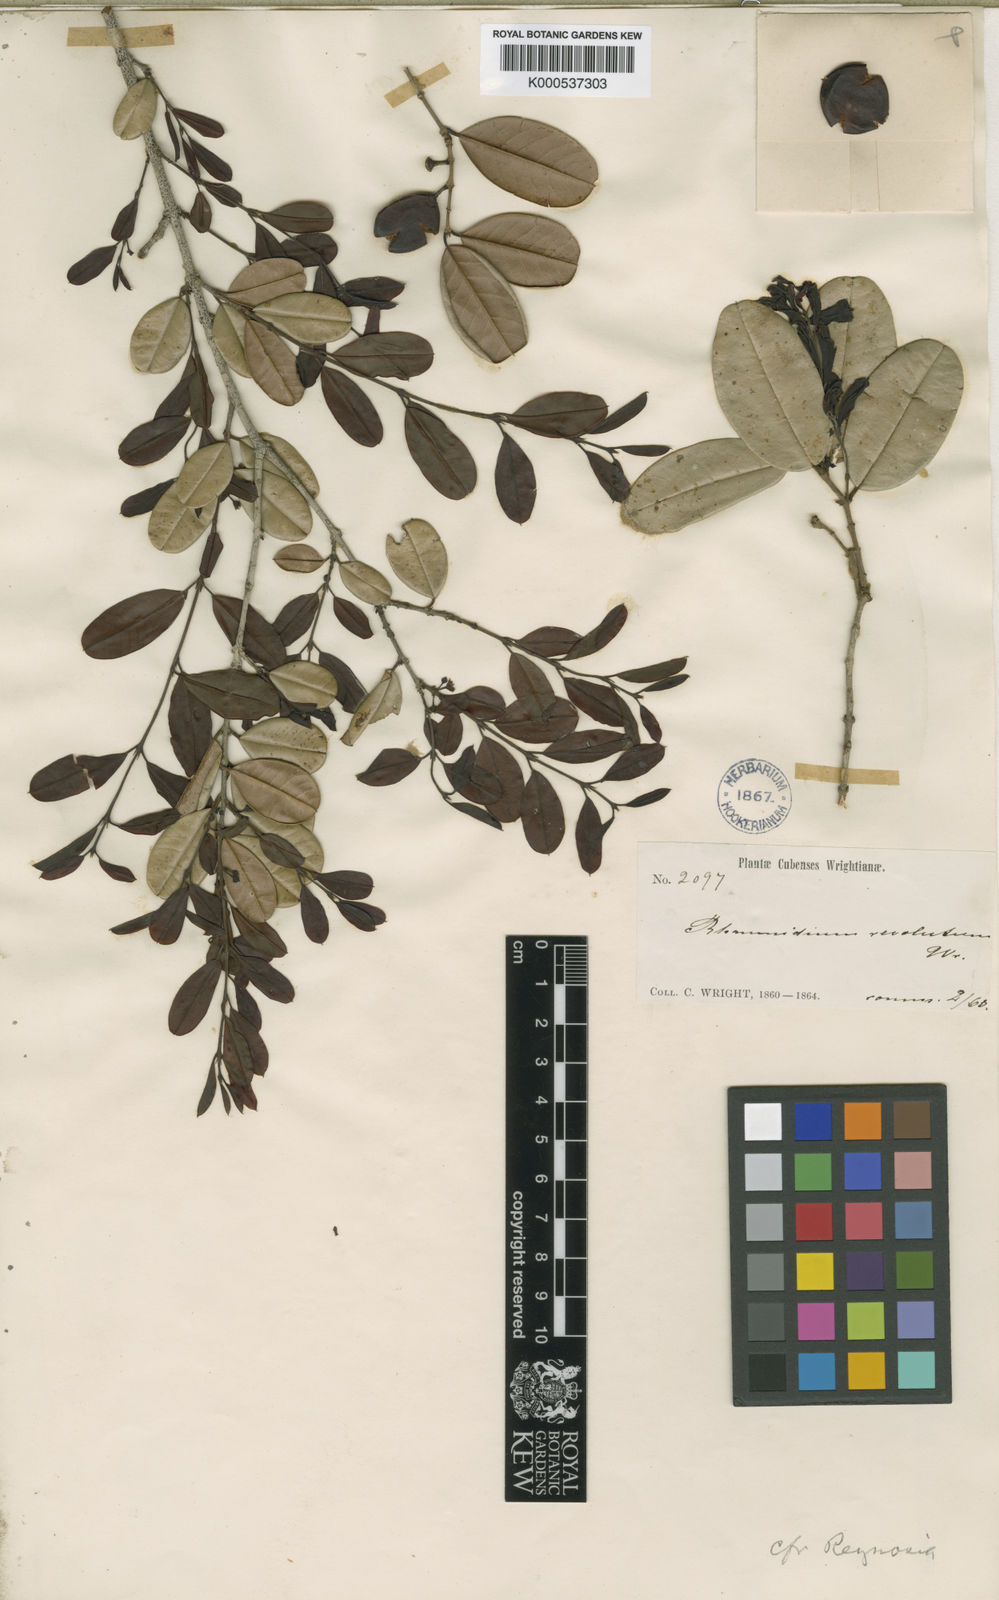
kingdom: Plantae
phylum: Tracheophyta
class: Magnoliopsida
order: Rosales
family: Rhamnaceae
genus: Rhamnidium
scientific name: Rhamnidium
